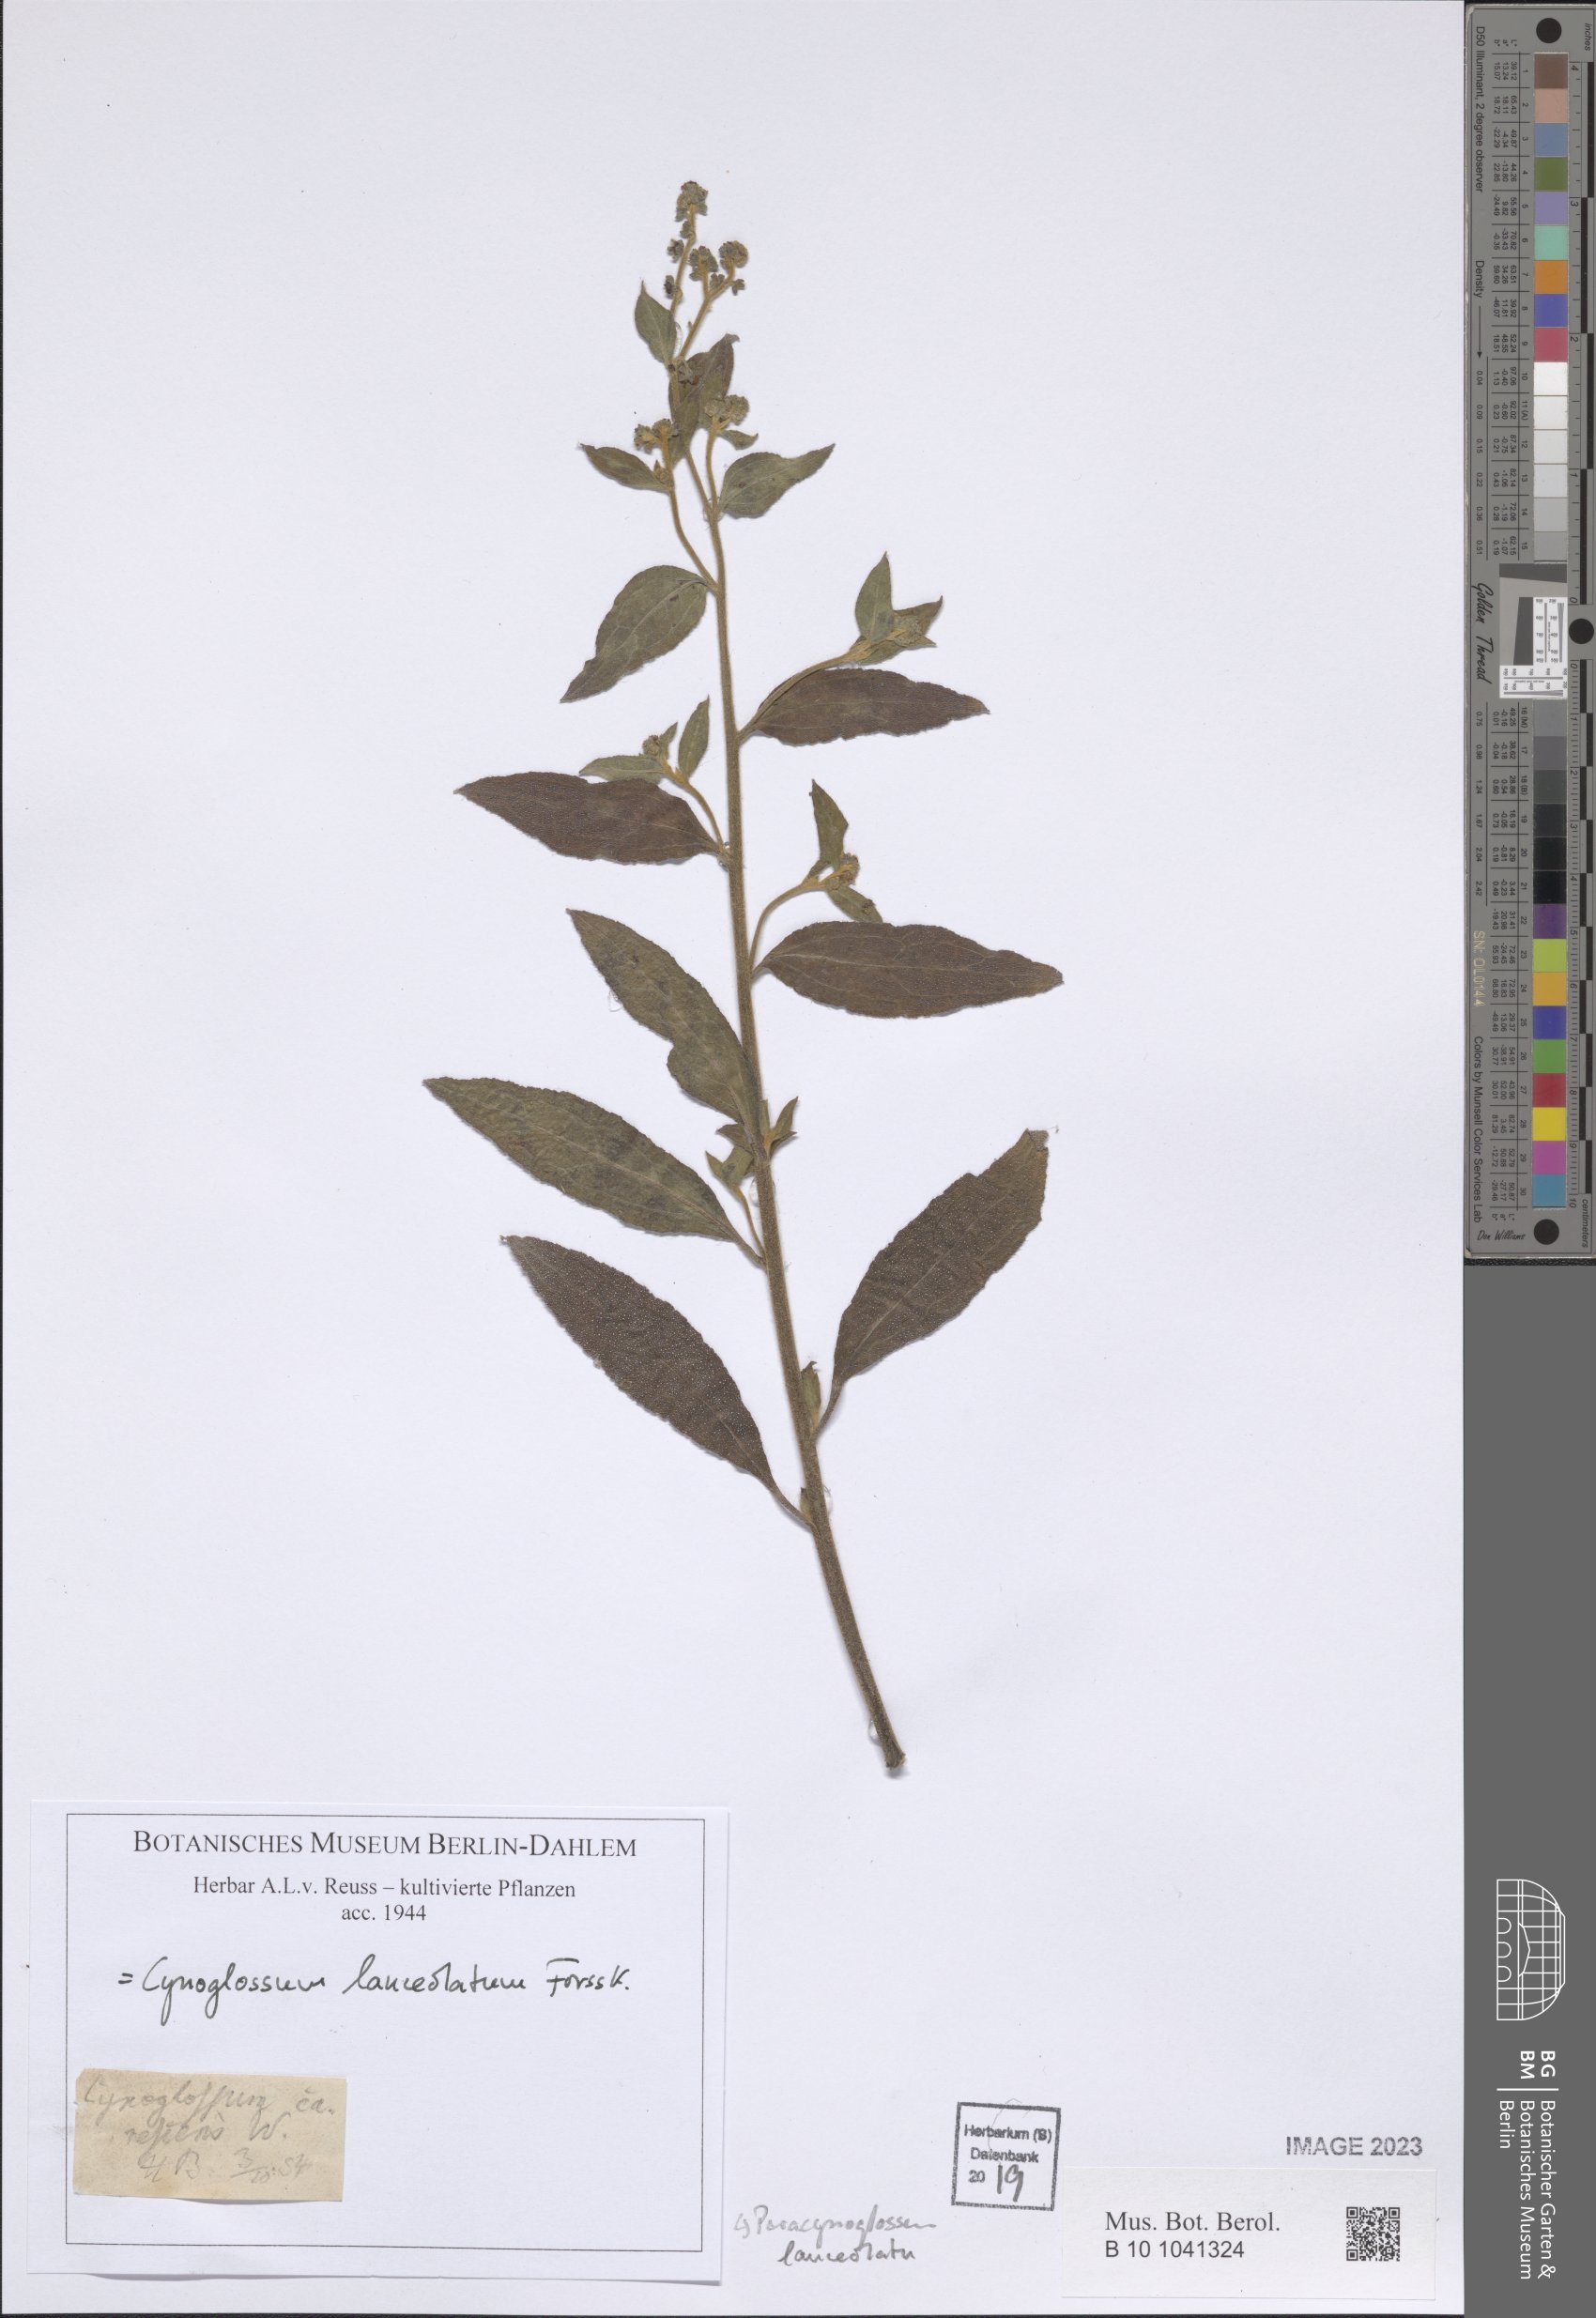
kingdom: Plantae
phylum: Tracheophyta
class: Magnoliopsida
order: Boraginales
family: Boraginaceae
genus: Paracynoglossum
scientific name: Paracynoglossum lanceolatum
